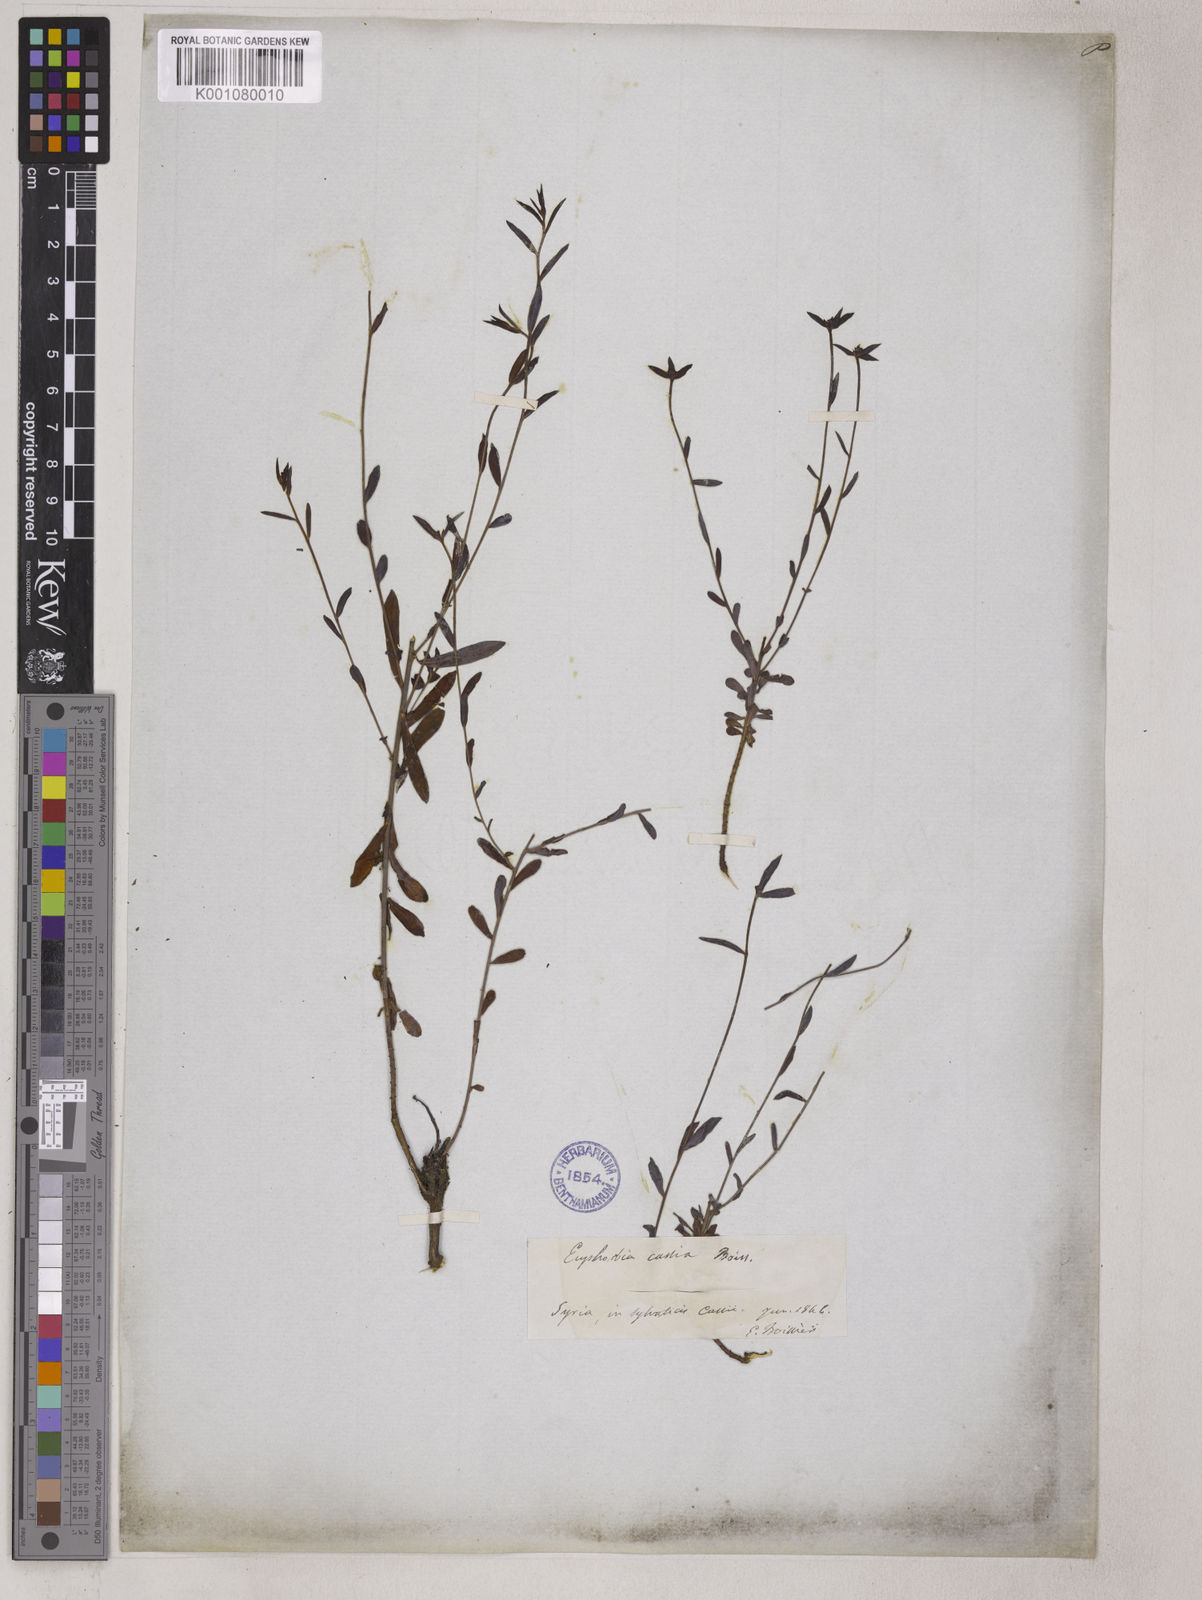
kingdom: Plantae
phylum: Tracheophyta
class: Magnoliopsida
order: Malpighiales
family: Euphorbiaceae
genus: Euphorbia
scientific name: Euphorbia cassia
